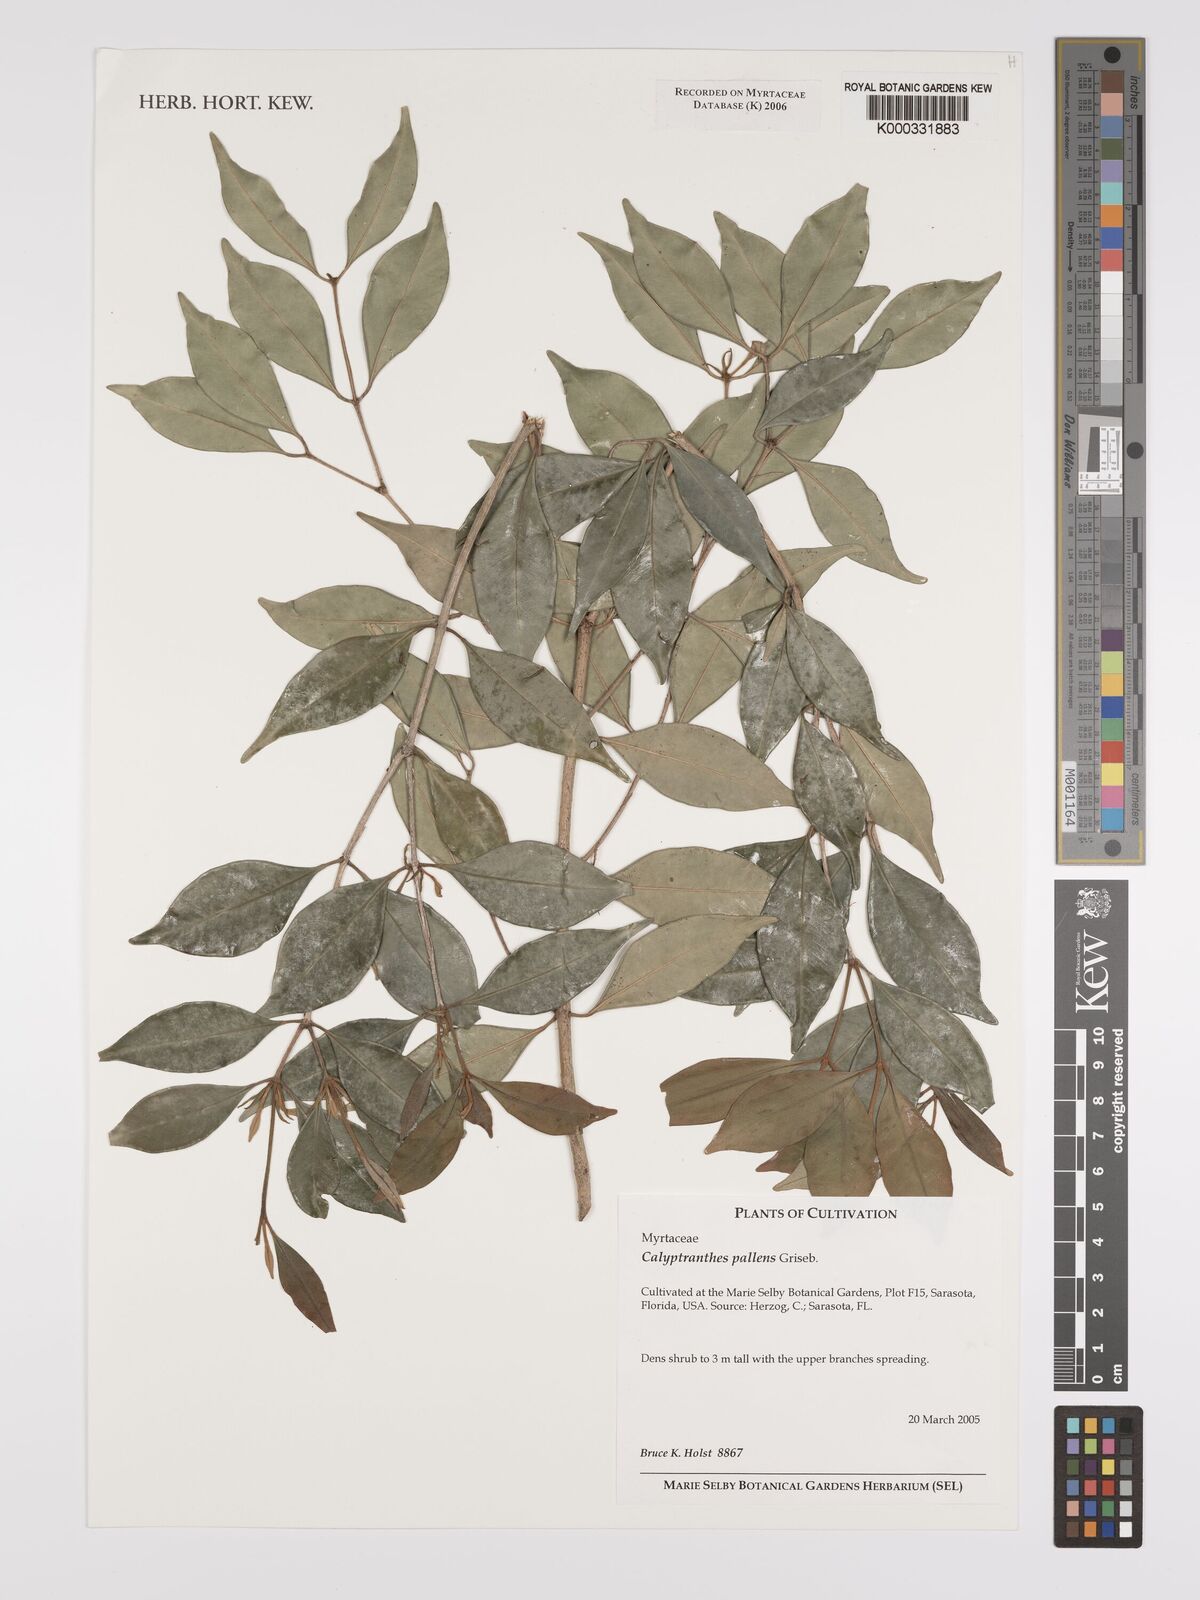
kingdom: Plantae
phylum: Tracheophyta
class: Magnoliopsida
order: Myrtales
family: Myrtaceae
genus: Myrcia
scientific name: Myrcia neopallens
